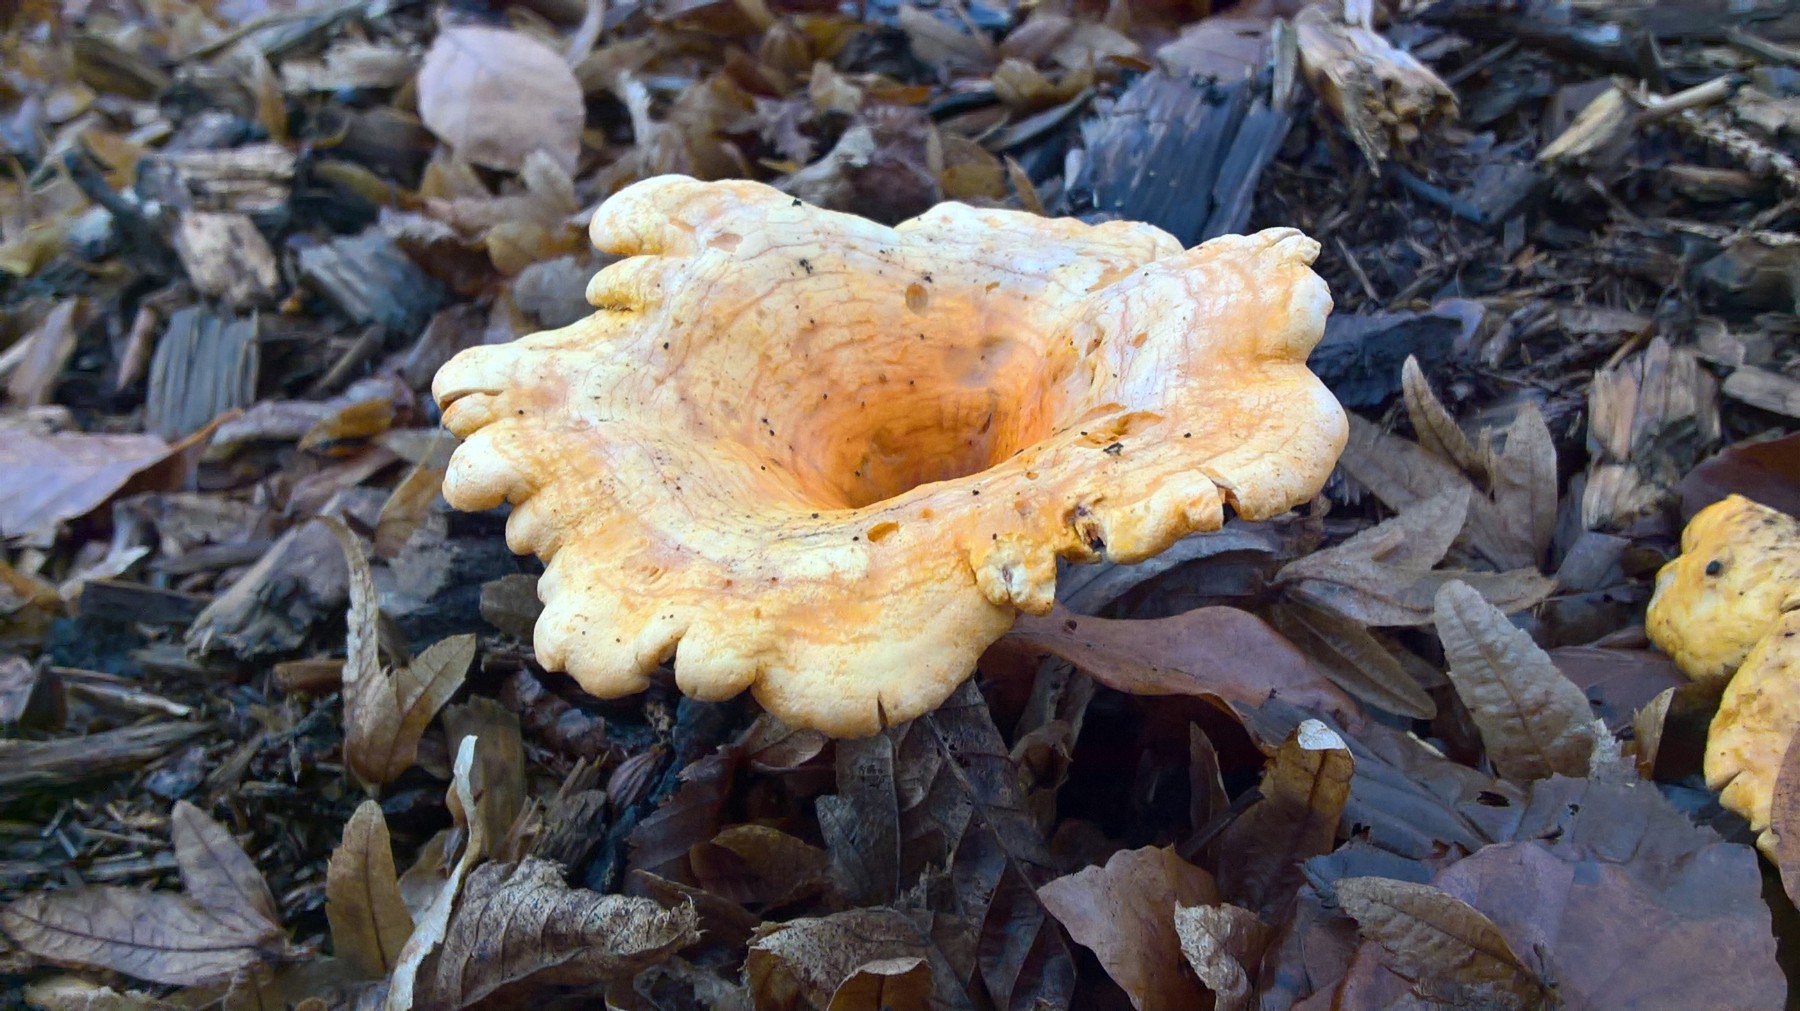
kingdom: Fungi
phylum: Basidiomycota
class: Agaricomycetes
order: Boletales
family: Hygrophoropsidaceae
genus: Hygrophoropsis
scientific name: Hygrophoropsis aurantiaca
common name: almindelig orangekantarel
